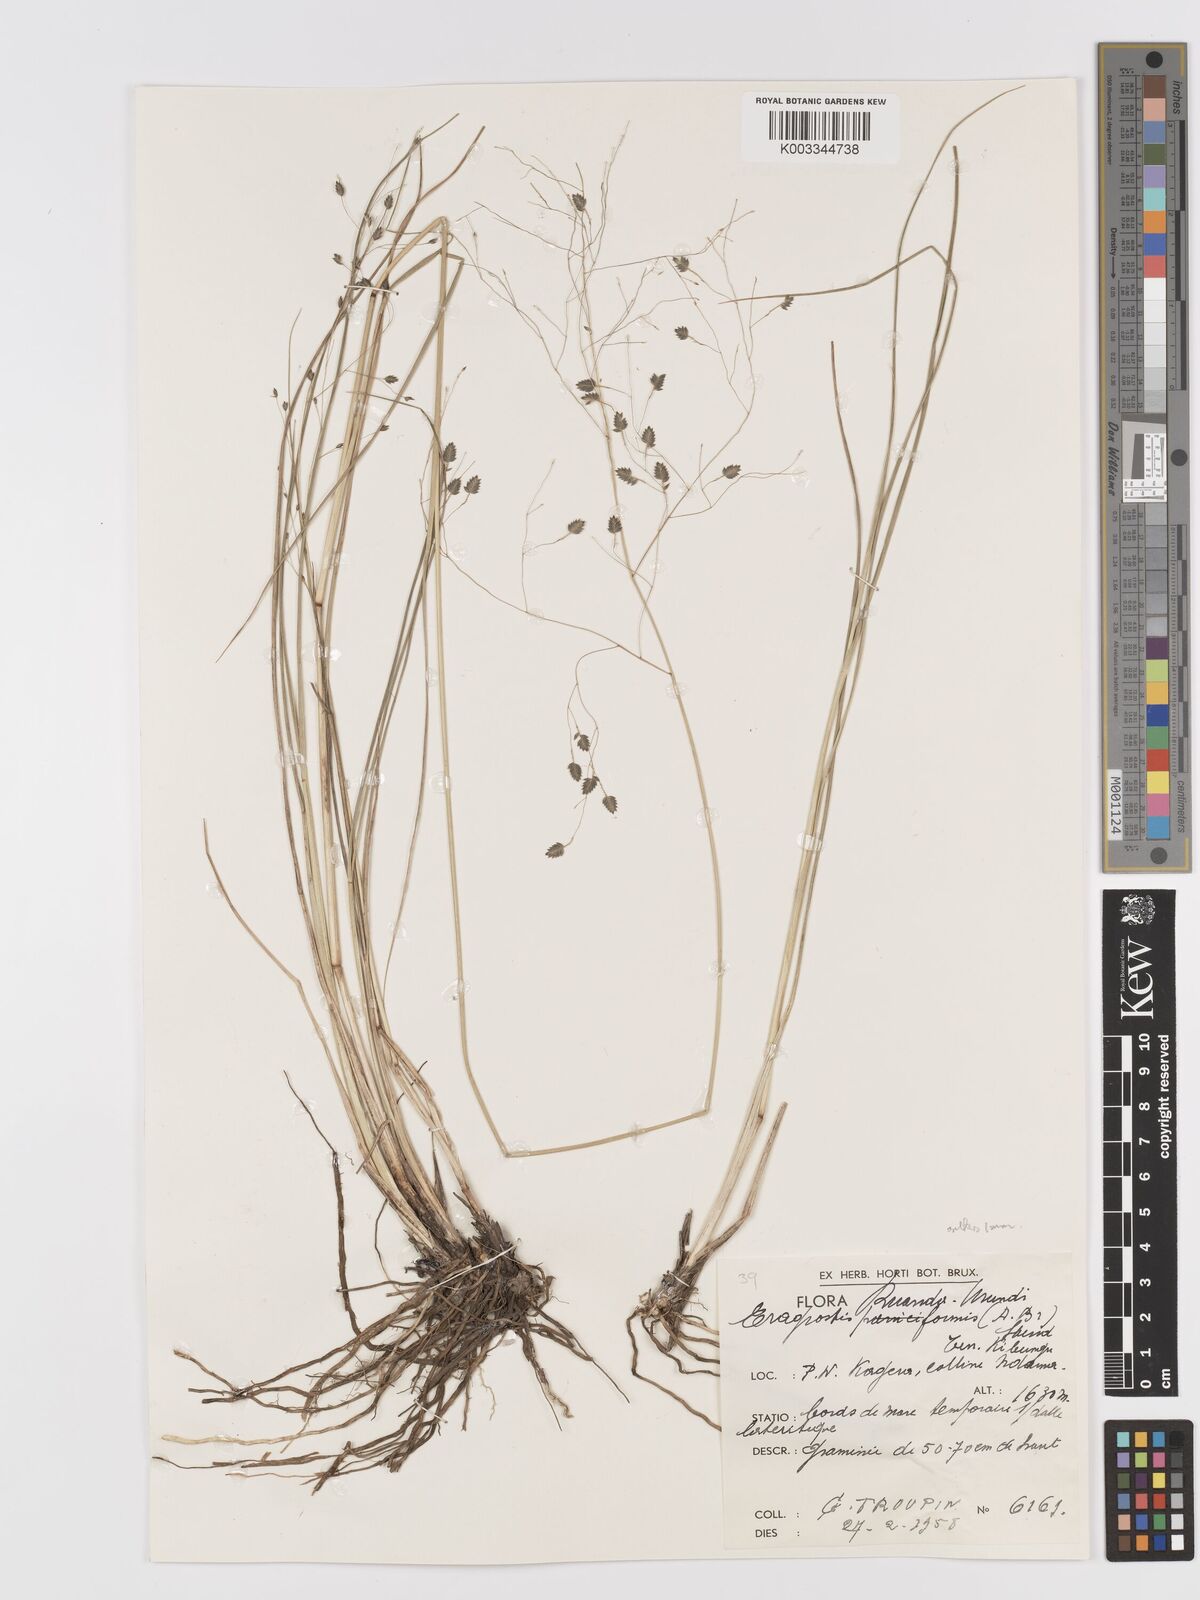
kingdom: Plantae
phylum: Tracheophyta
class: Liliopsida
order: Poales
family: Poaceae
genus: Eragrostis
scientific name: Eragrostis chalarothyrsos
